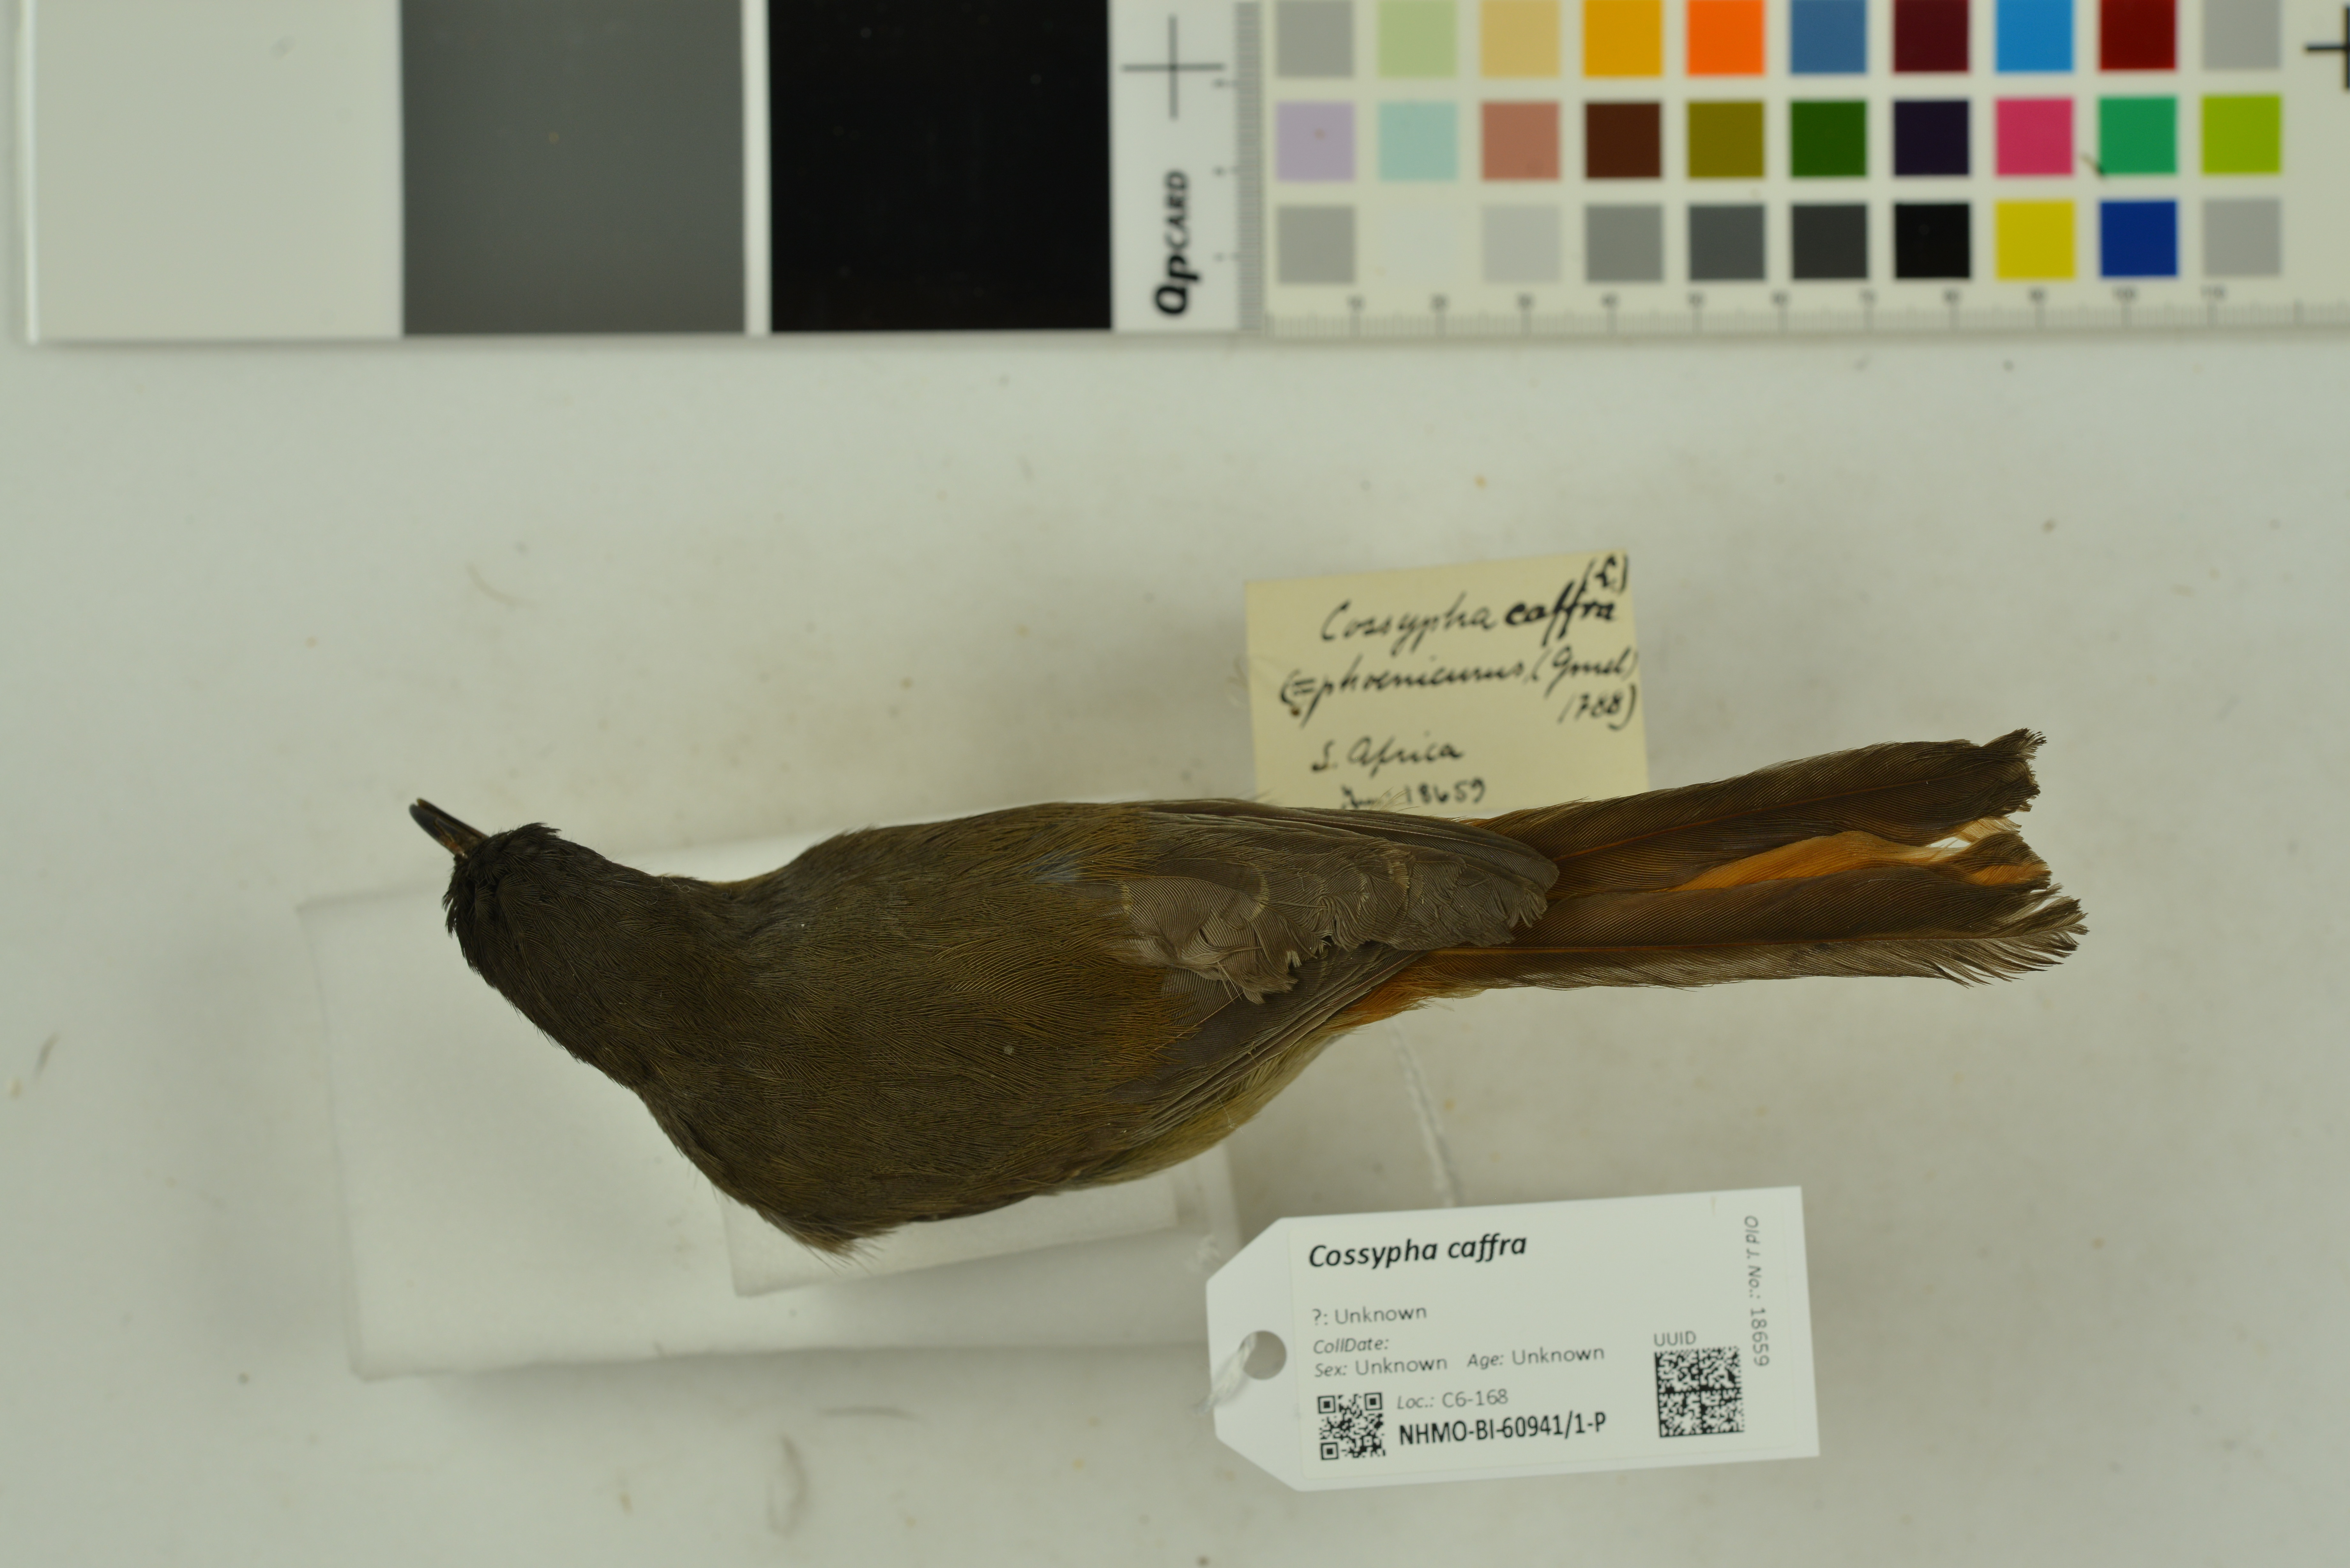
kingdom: Animalia
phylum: Chordata
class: Aves
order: Passeriformes
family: Muscicapidae
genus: Cossypha
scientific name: Cossypha caffra
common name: Cape robin-chat
